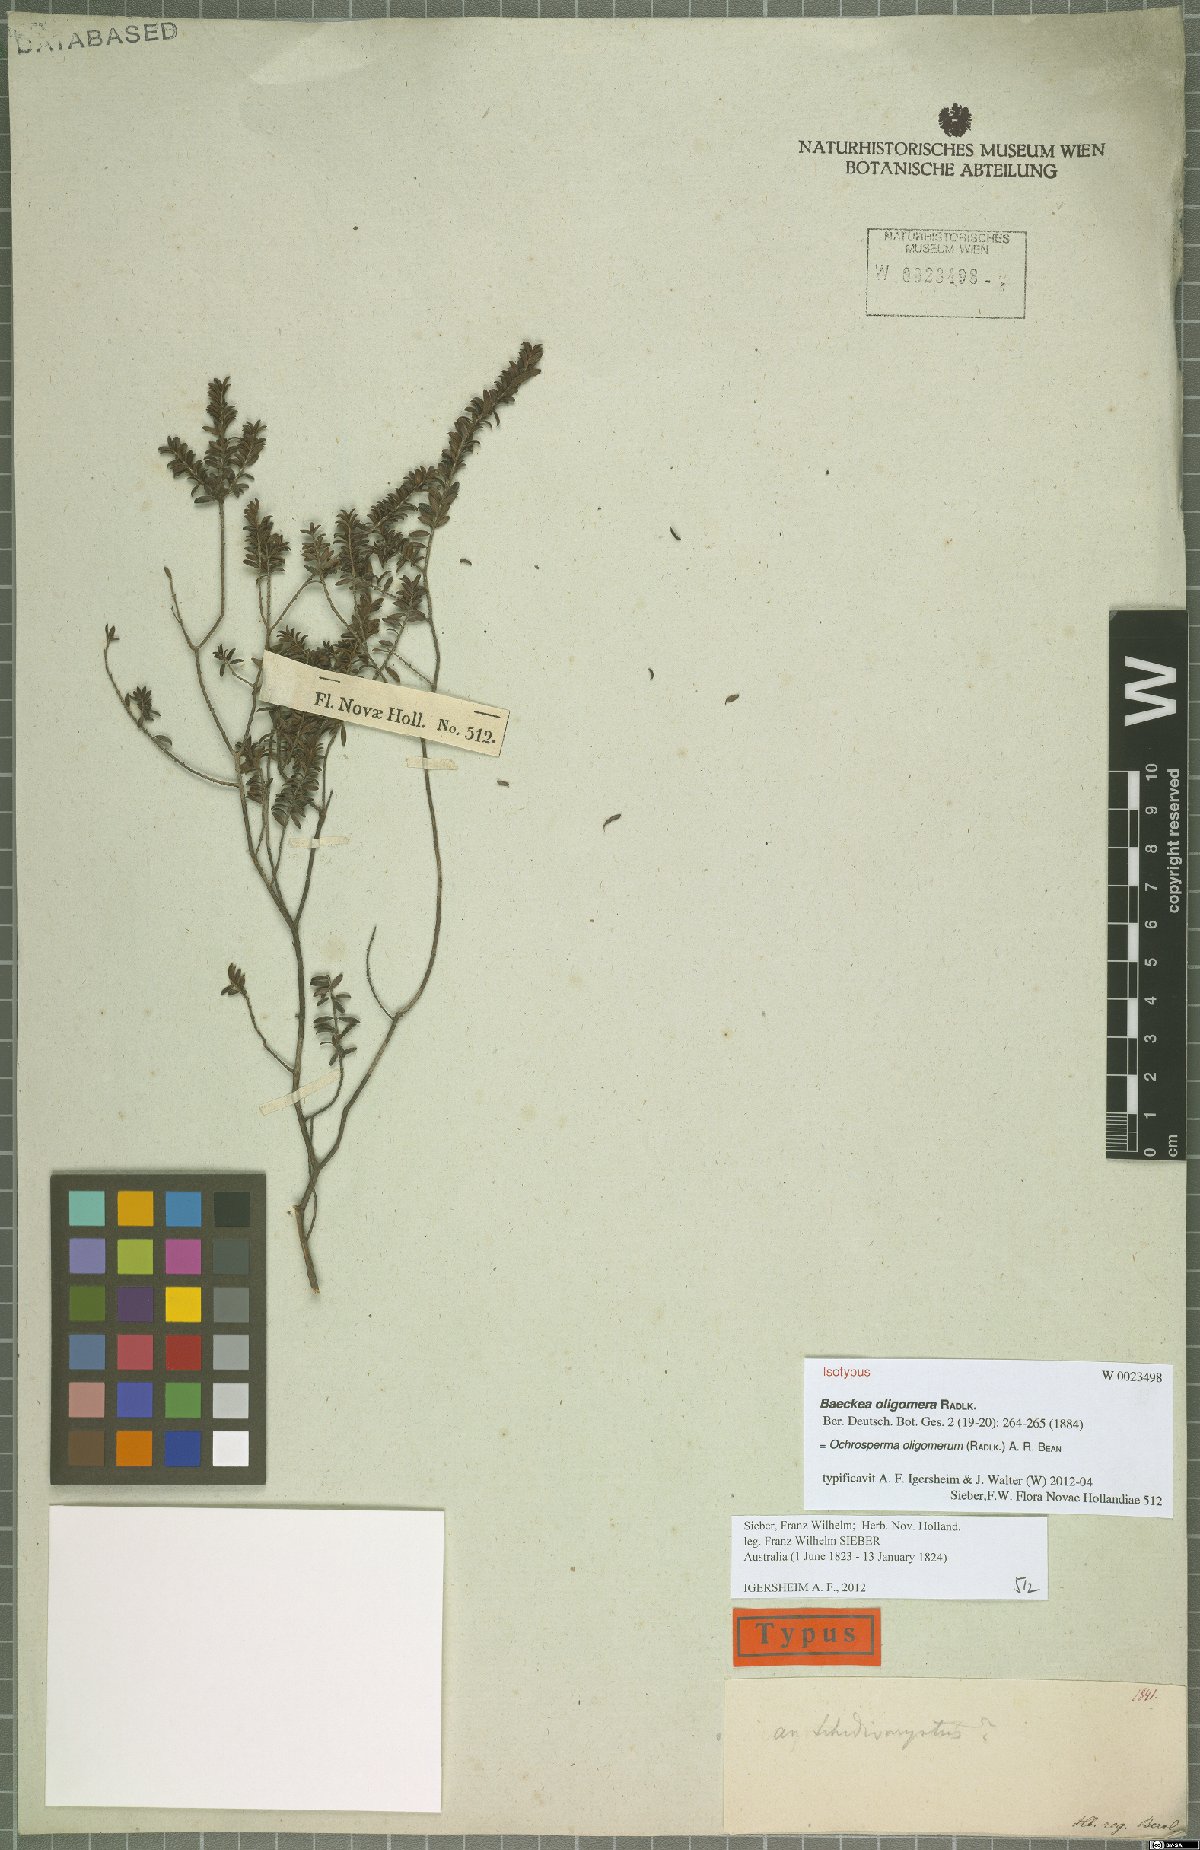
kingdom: Plantae
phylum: Tracheophyta
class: Magnoliopsida
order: Myrtales
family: Myrtaceae
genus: Ochrosperma
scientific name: Ochrosperma oligomerum
